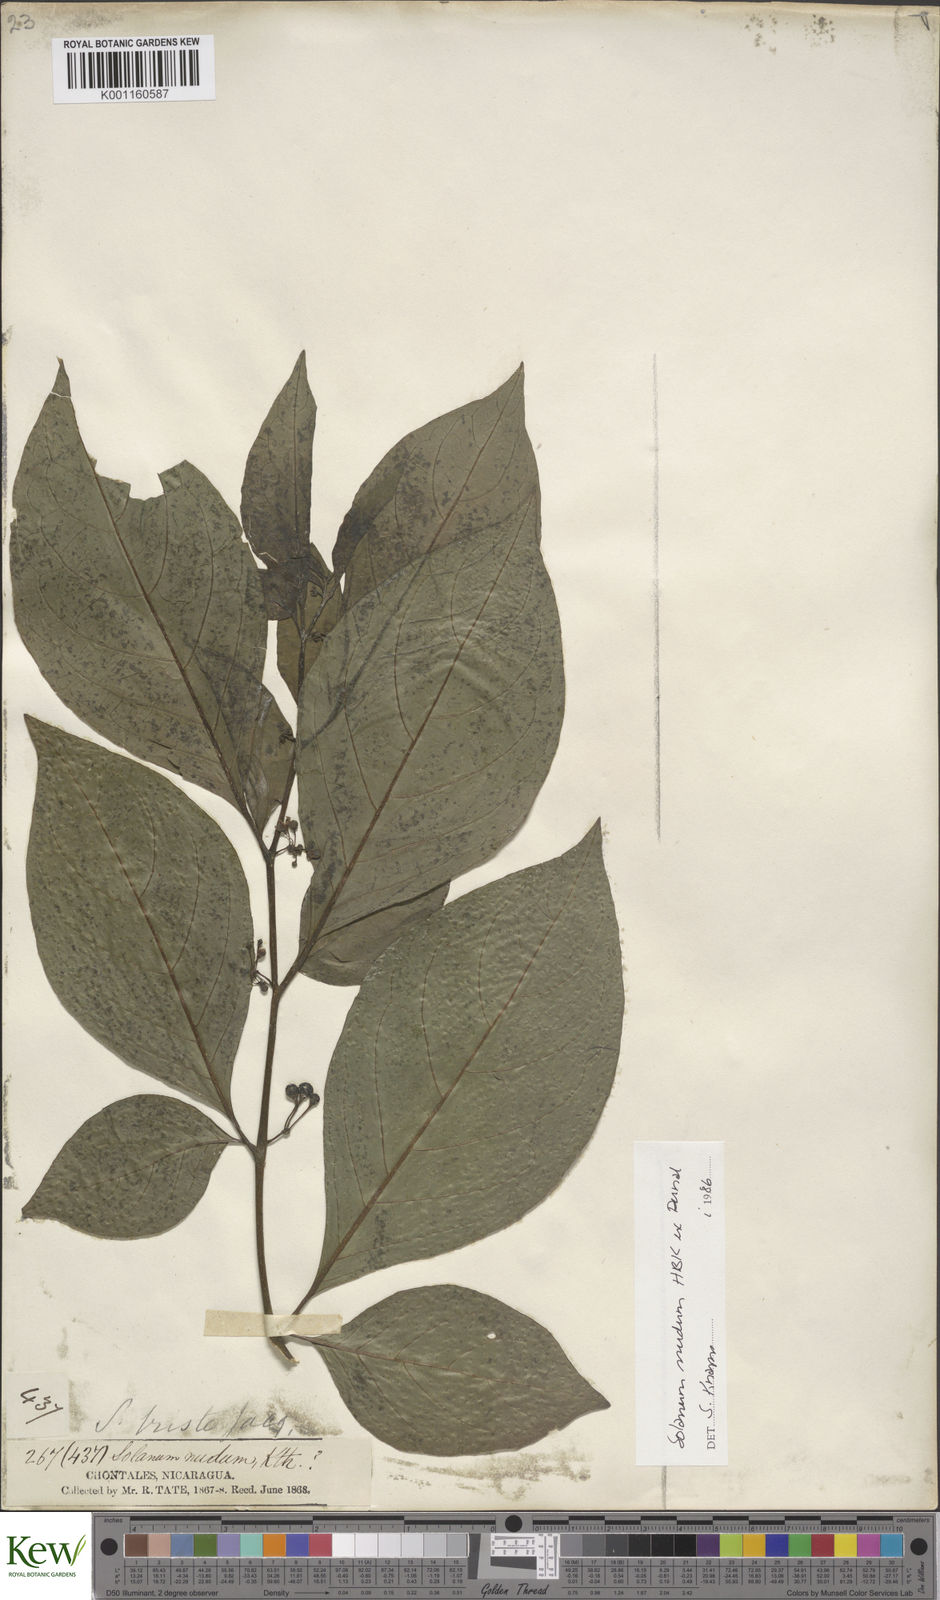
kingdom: Plantae
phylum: Tracheophyta
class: Magnoliopsida
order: Solanales
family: Solanaceae
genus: Solanum
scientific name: Solanum nudum
